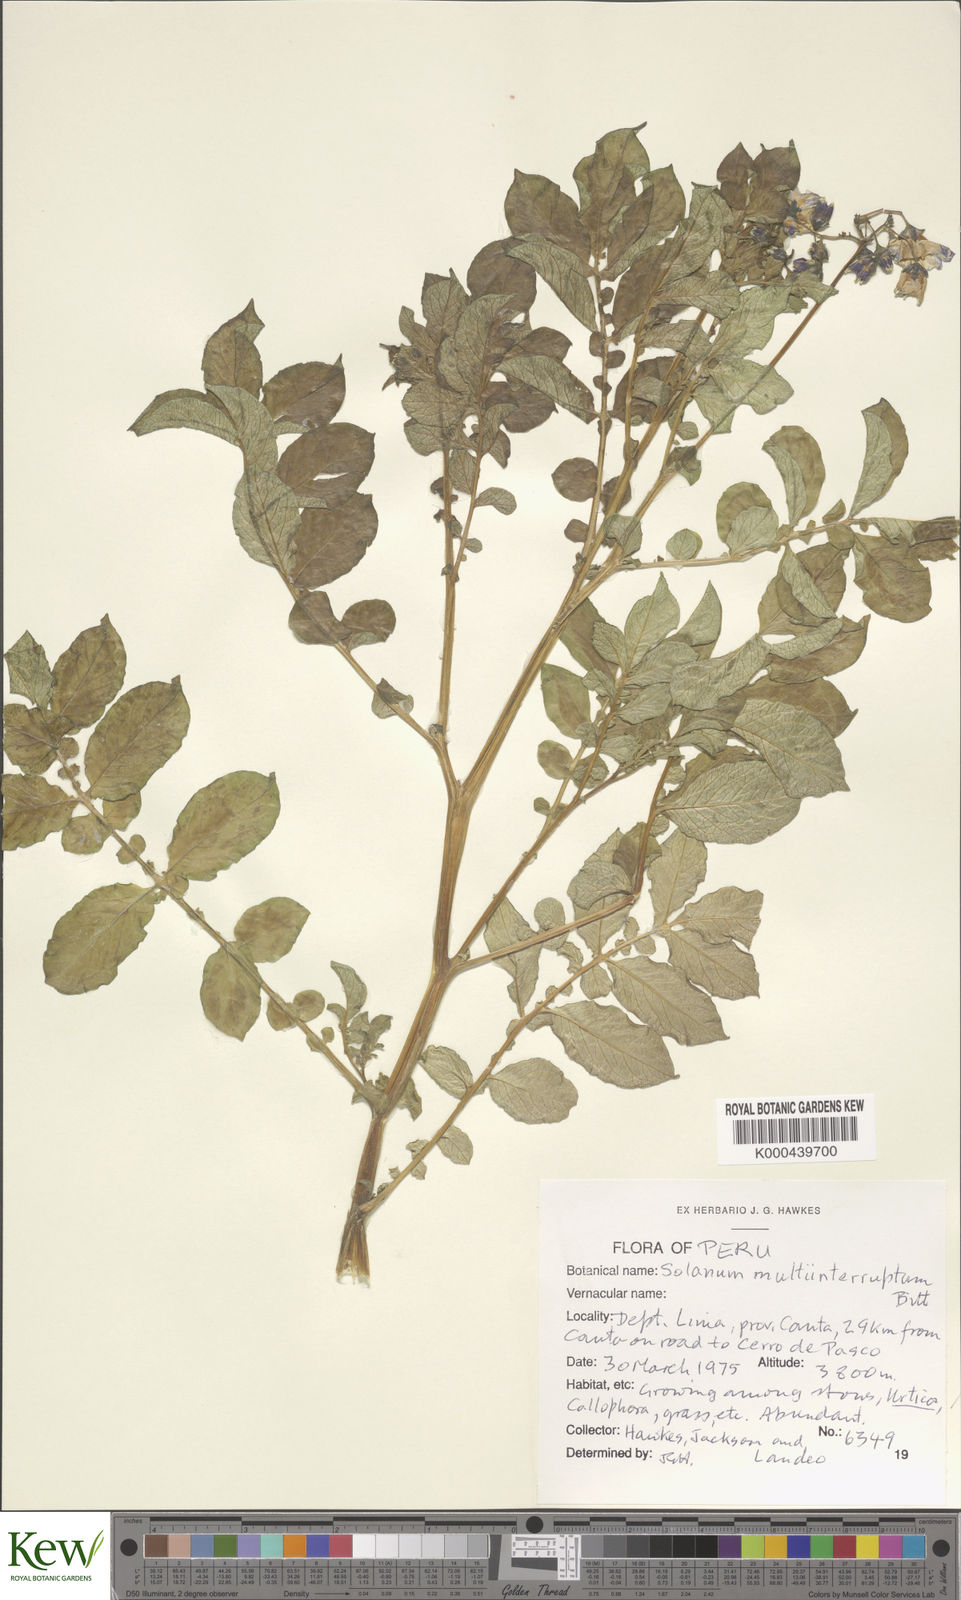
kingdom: Plantae
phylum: Tracheophyta
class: Magnoliopsida
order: Solanales
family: Solanaceae
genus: Solanum
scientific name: Solanum multiinterruptum
